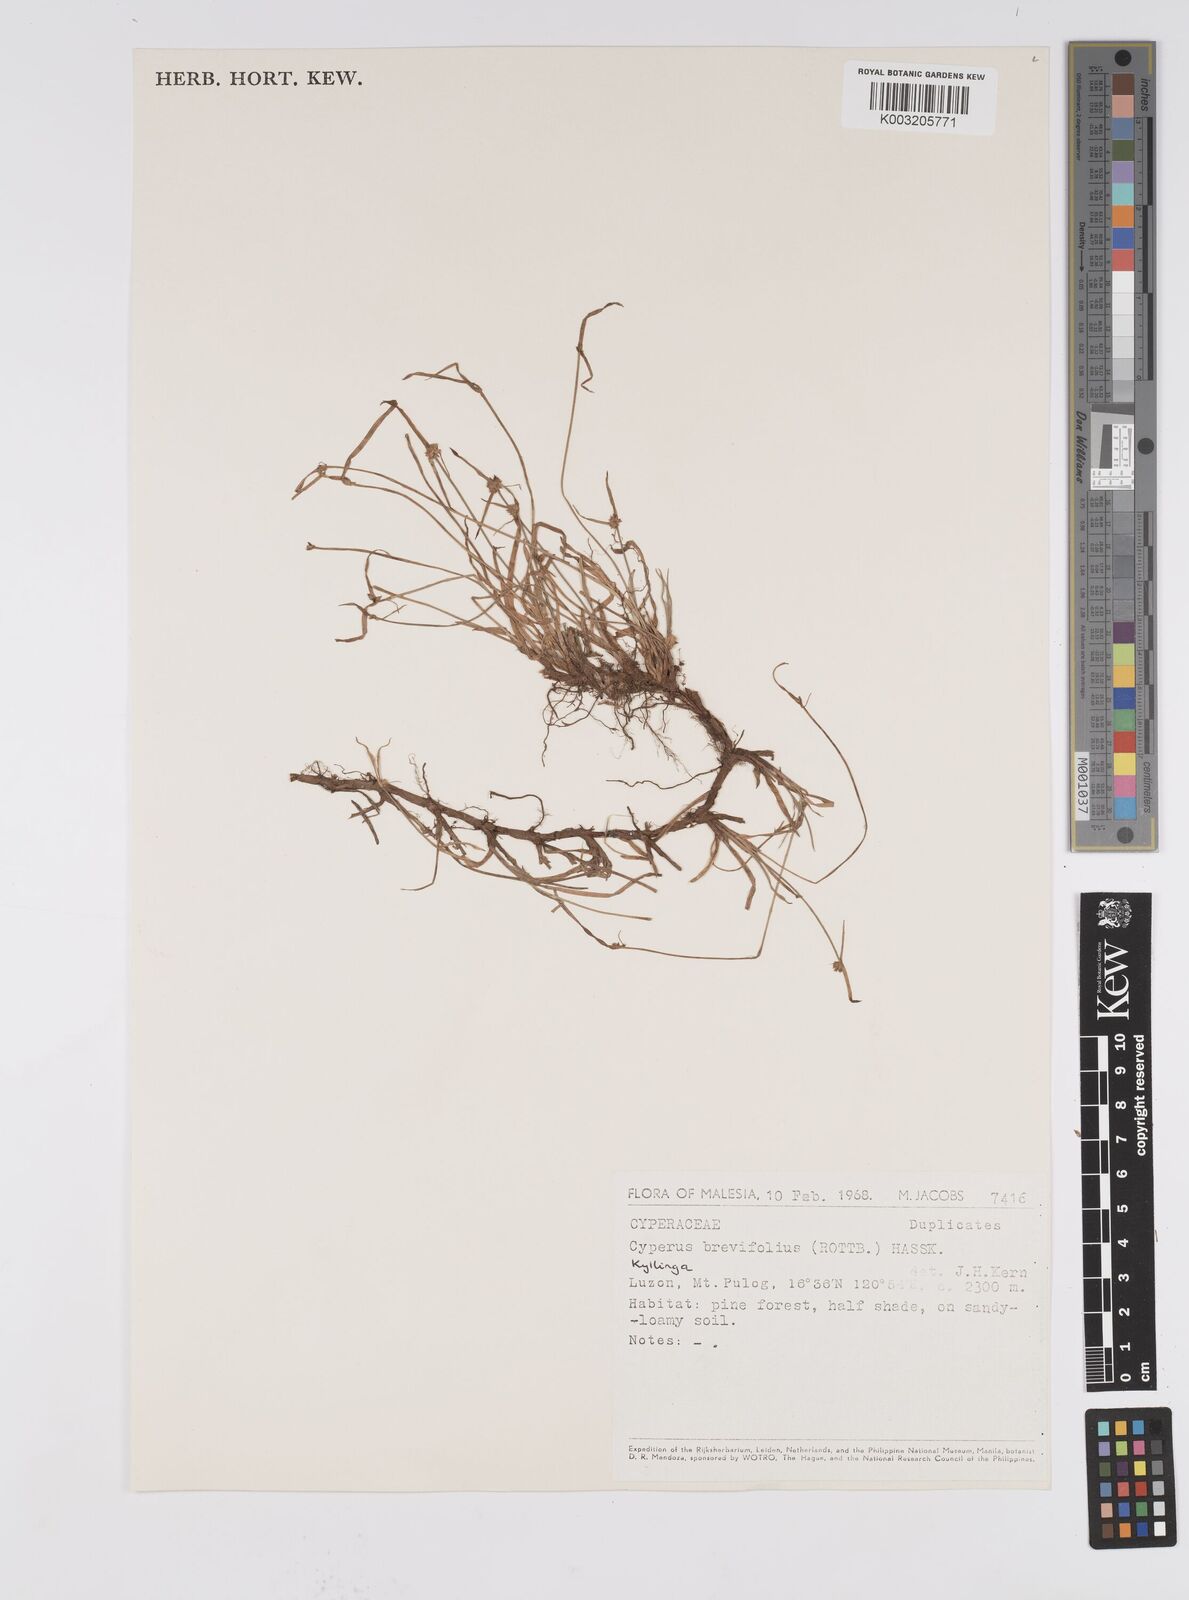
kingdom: Plantae
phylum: Tracheophyta
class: Liliopsida
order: Poales
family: Cyperaceae
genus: Cyperus
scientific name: Cyperus brevifolius
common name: Globe kyllinga
